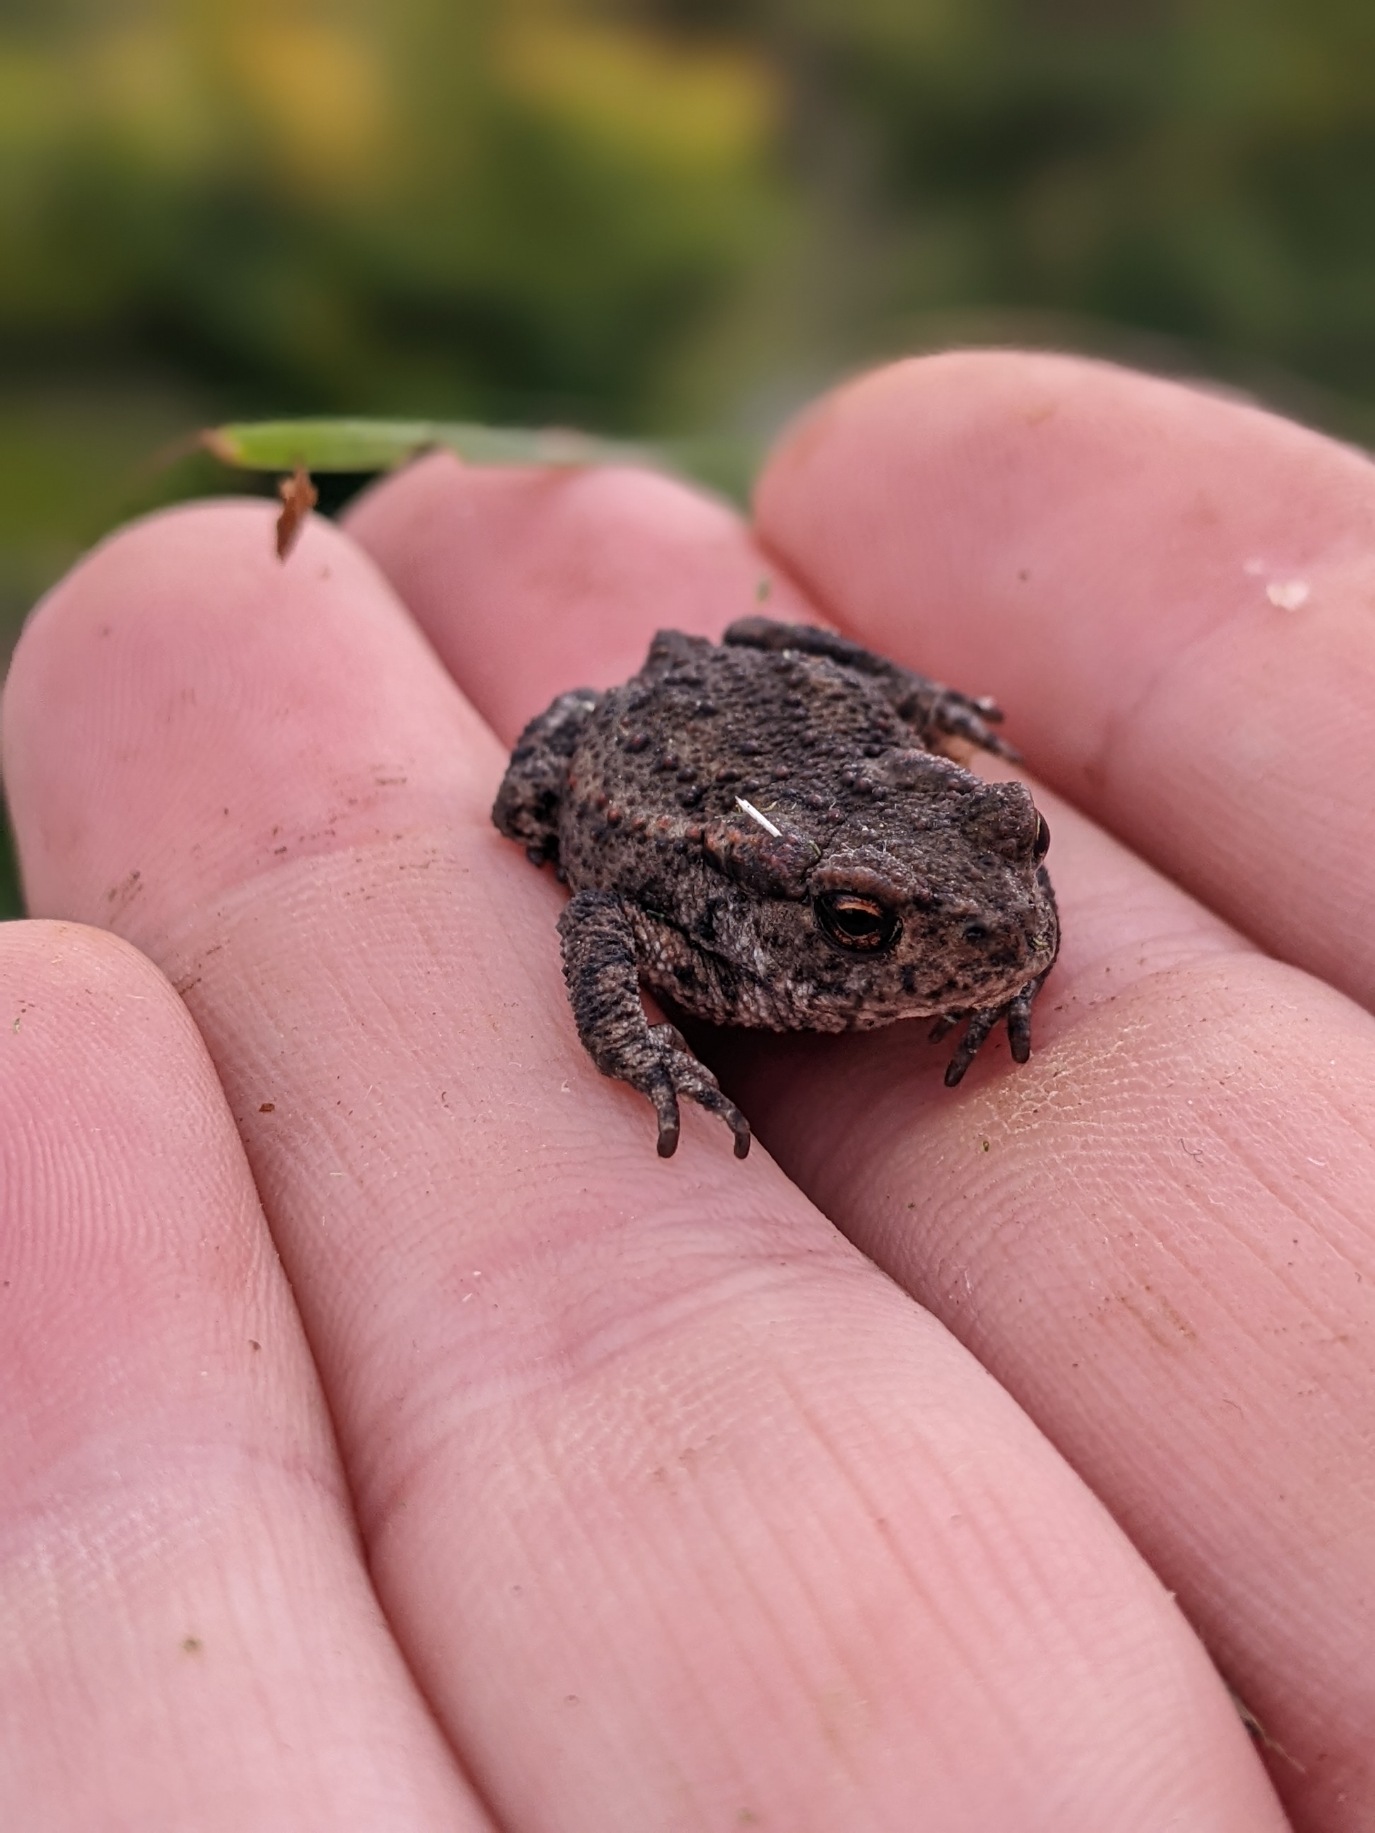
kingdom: Animalia
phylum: Chordata
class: Amphibia
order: Anura
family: Bufonidae
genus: Bufo
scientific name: Bufo bufo
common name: Skrubtudse
